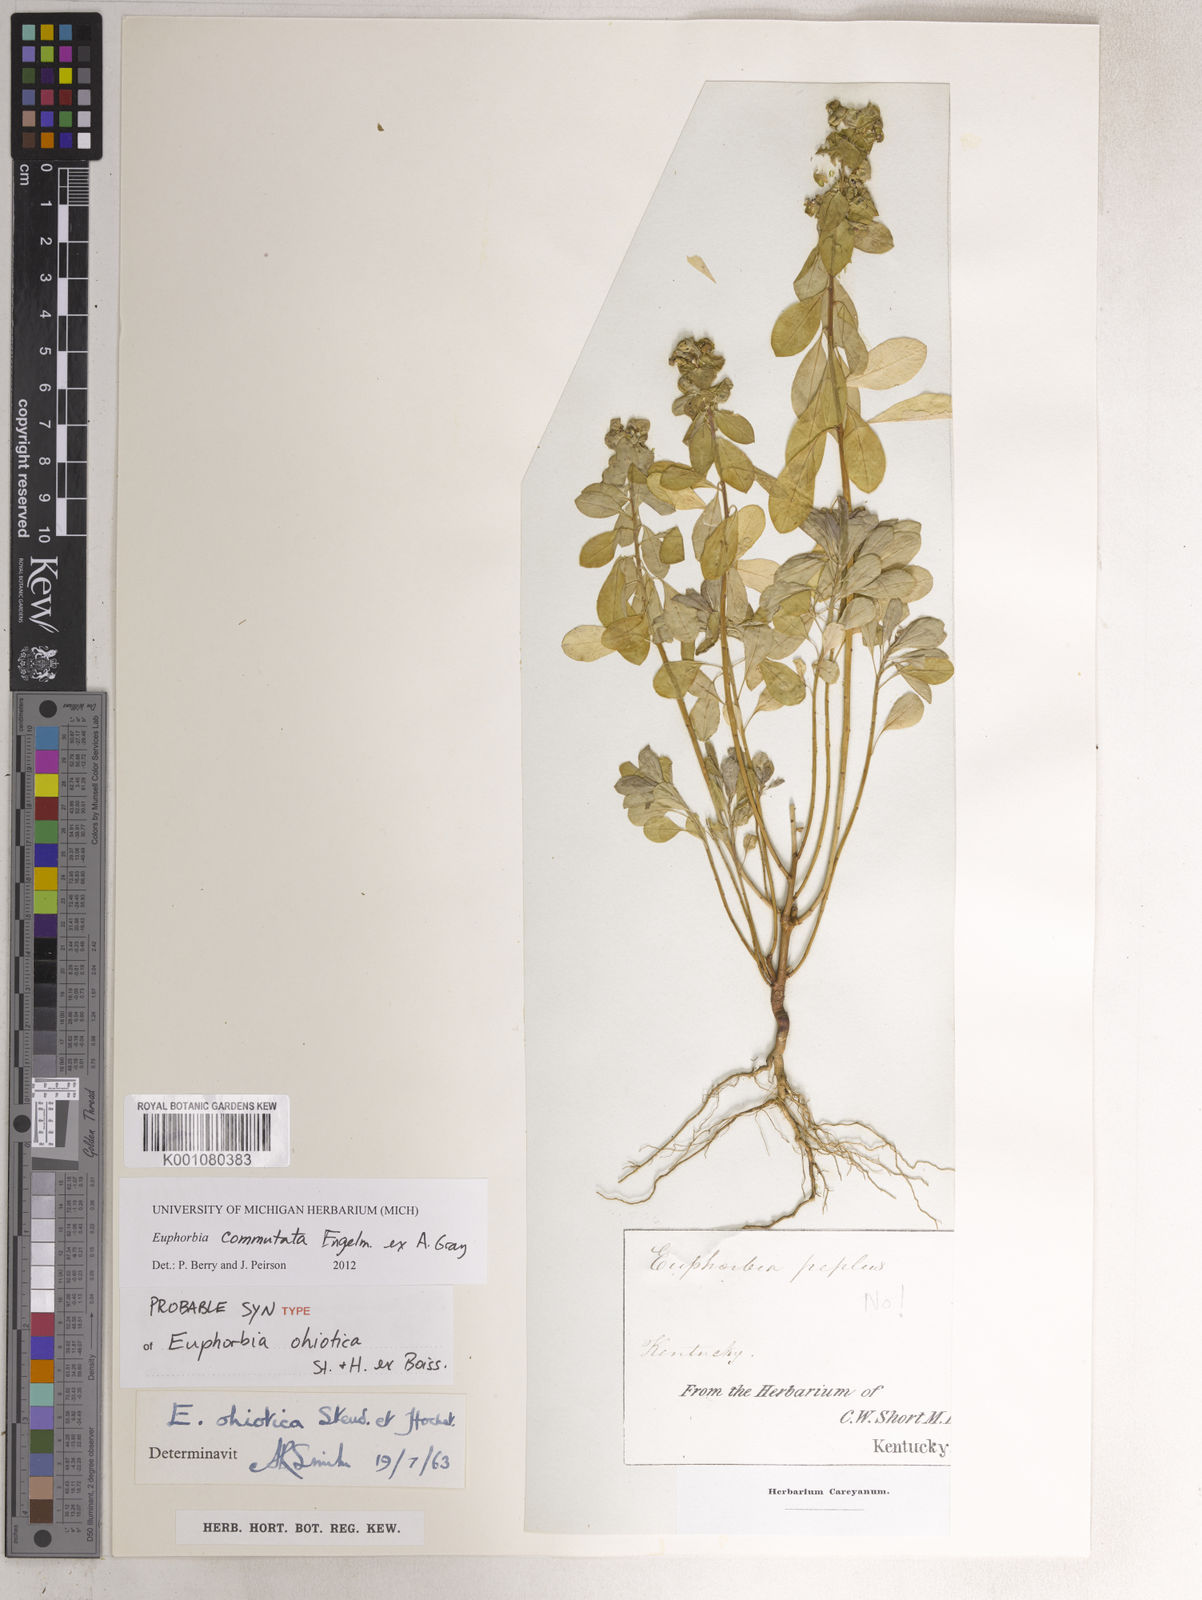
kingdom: Plantae
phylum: Tracheophyta
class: Magnoliopsida
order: Malpighiales
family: Euphorbiaceae
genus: Euphorbia
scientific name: Euphorbia commutata
